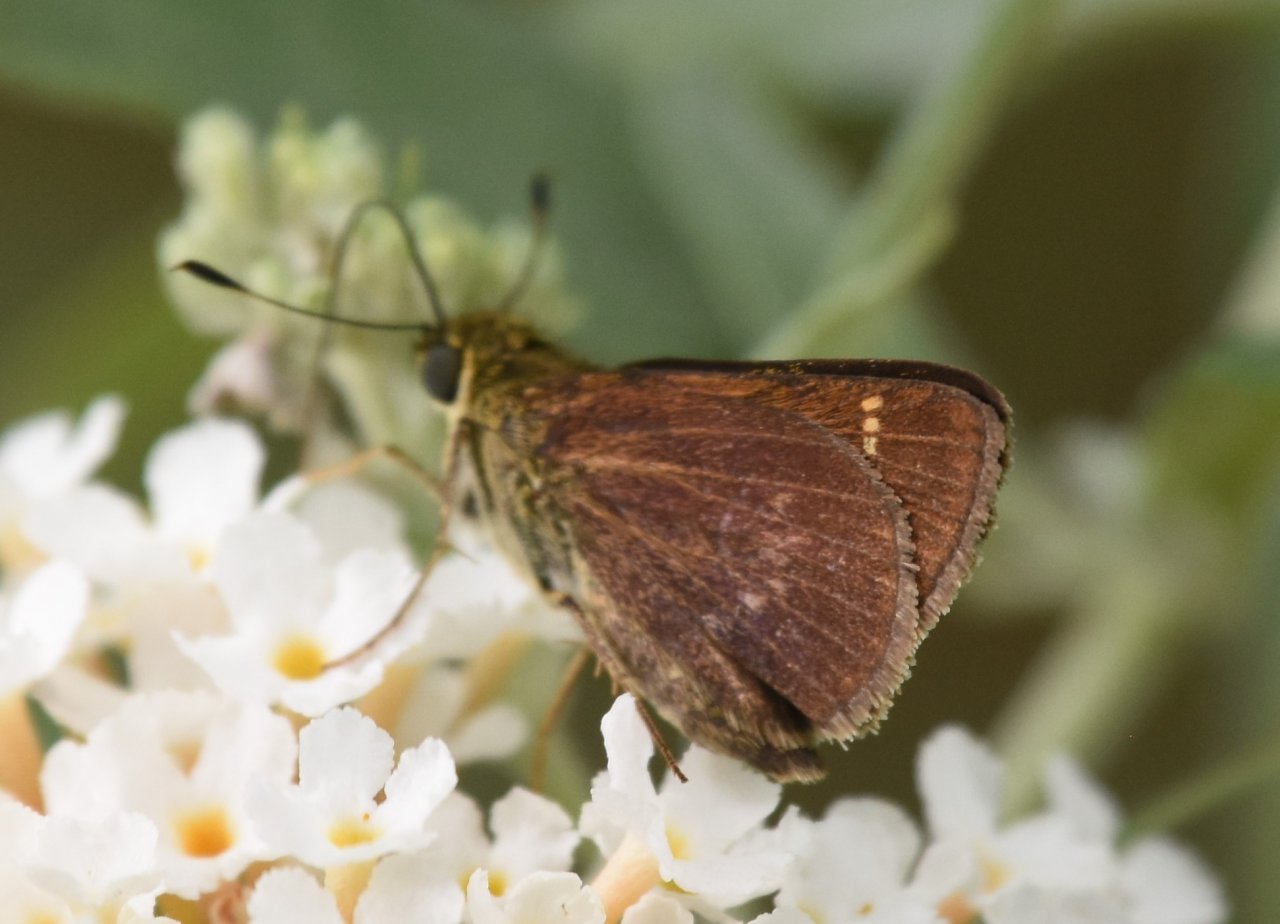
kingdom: Animalia
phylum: Arthropoda
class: Insecta
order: Lepidoptera
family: Hesperiidae
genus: Vernia
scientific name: Vernia verna
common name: Little Glassywing
